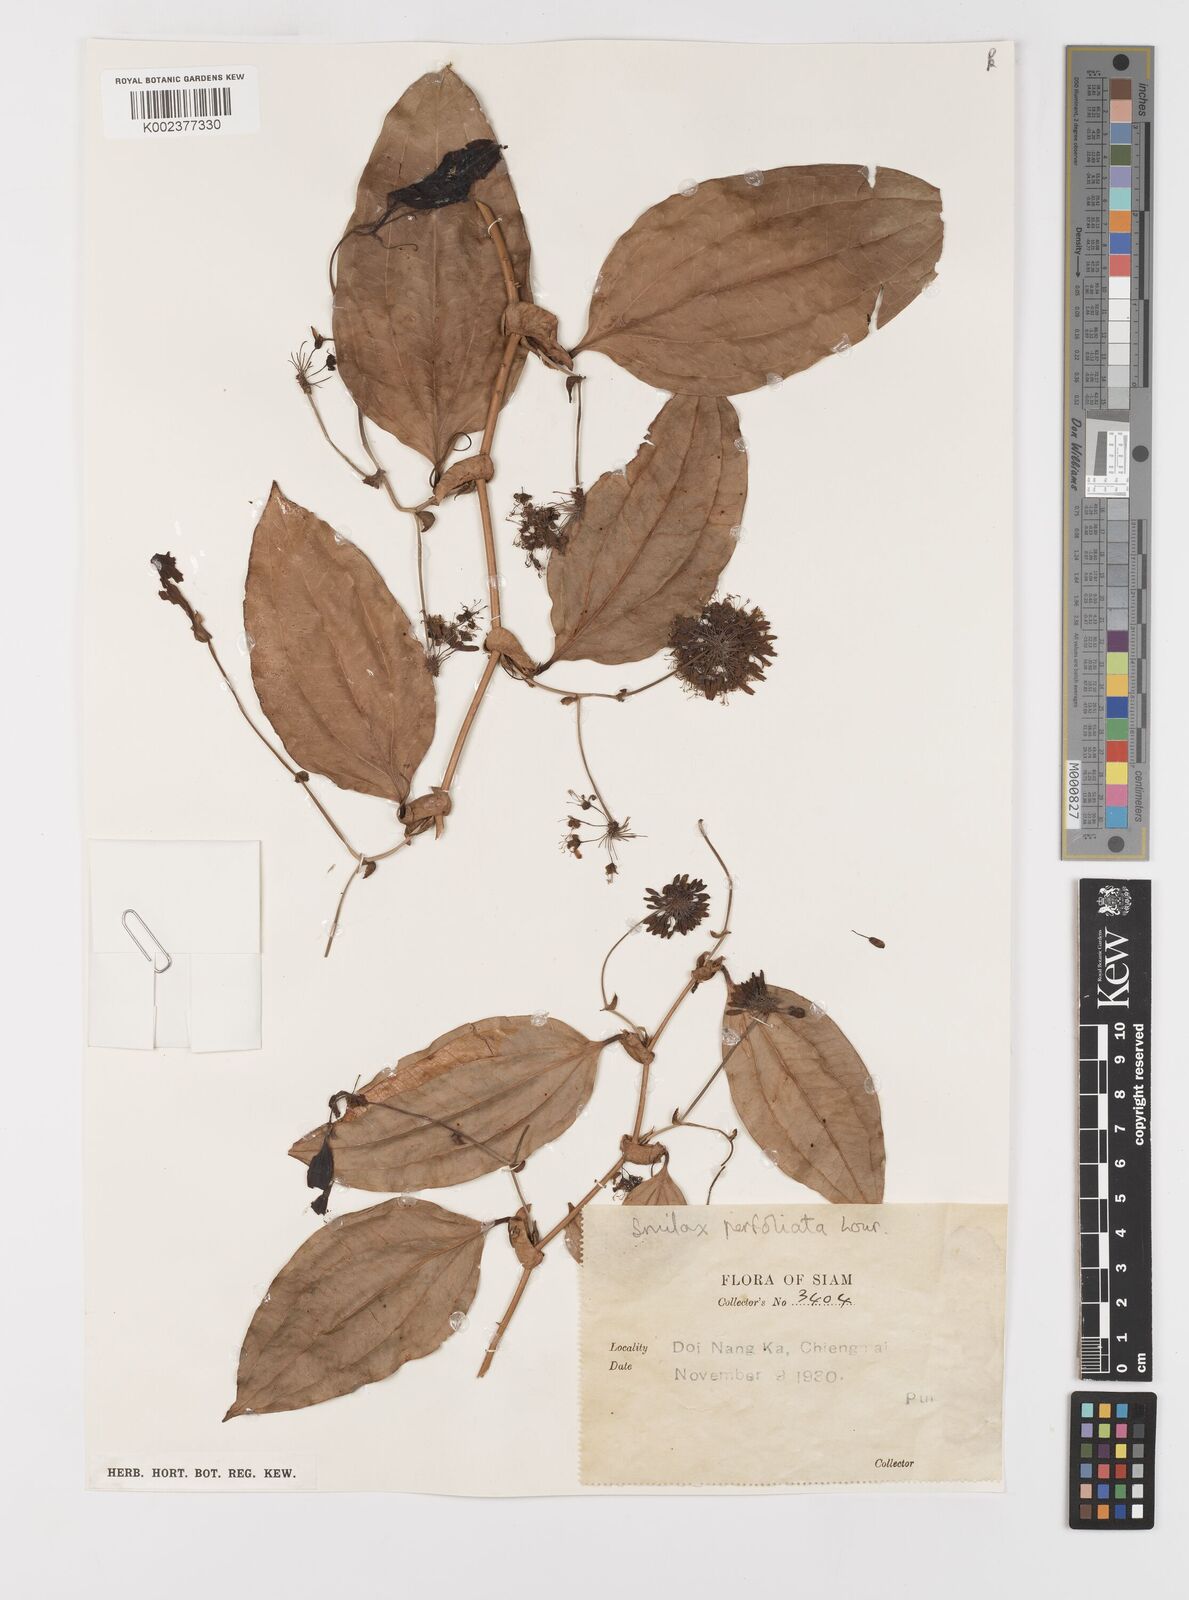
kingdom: Plantae
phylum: Tracheophyta
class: Liliopsida
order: Liliales
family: Smilacaceae
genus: Smilax
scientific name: Smilax perfoliata
